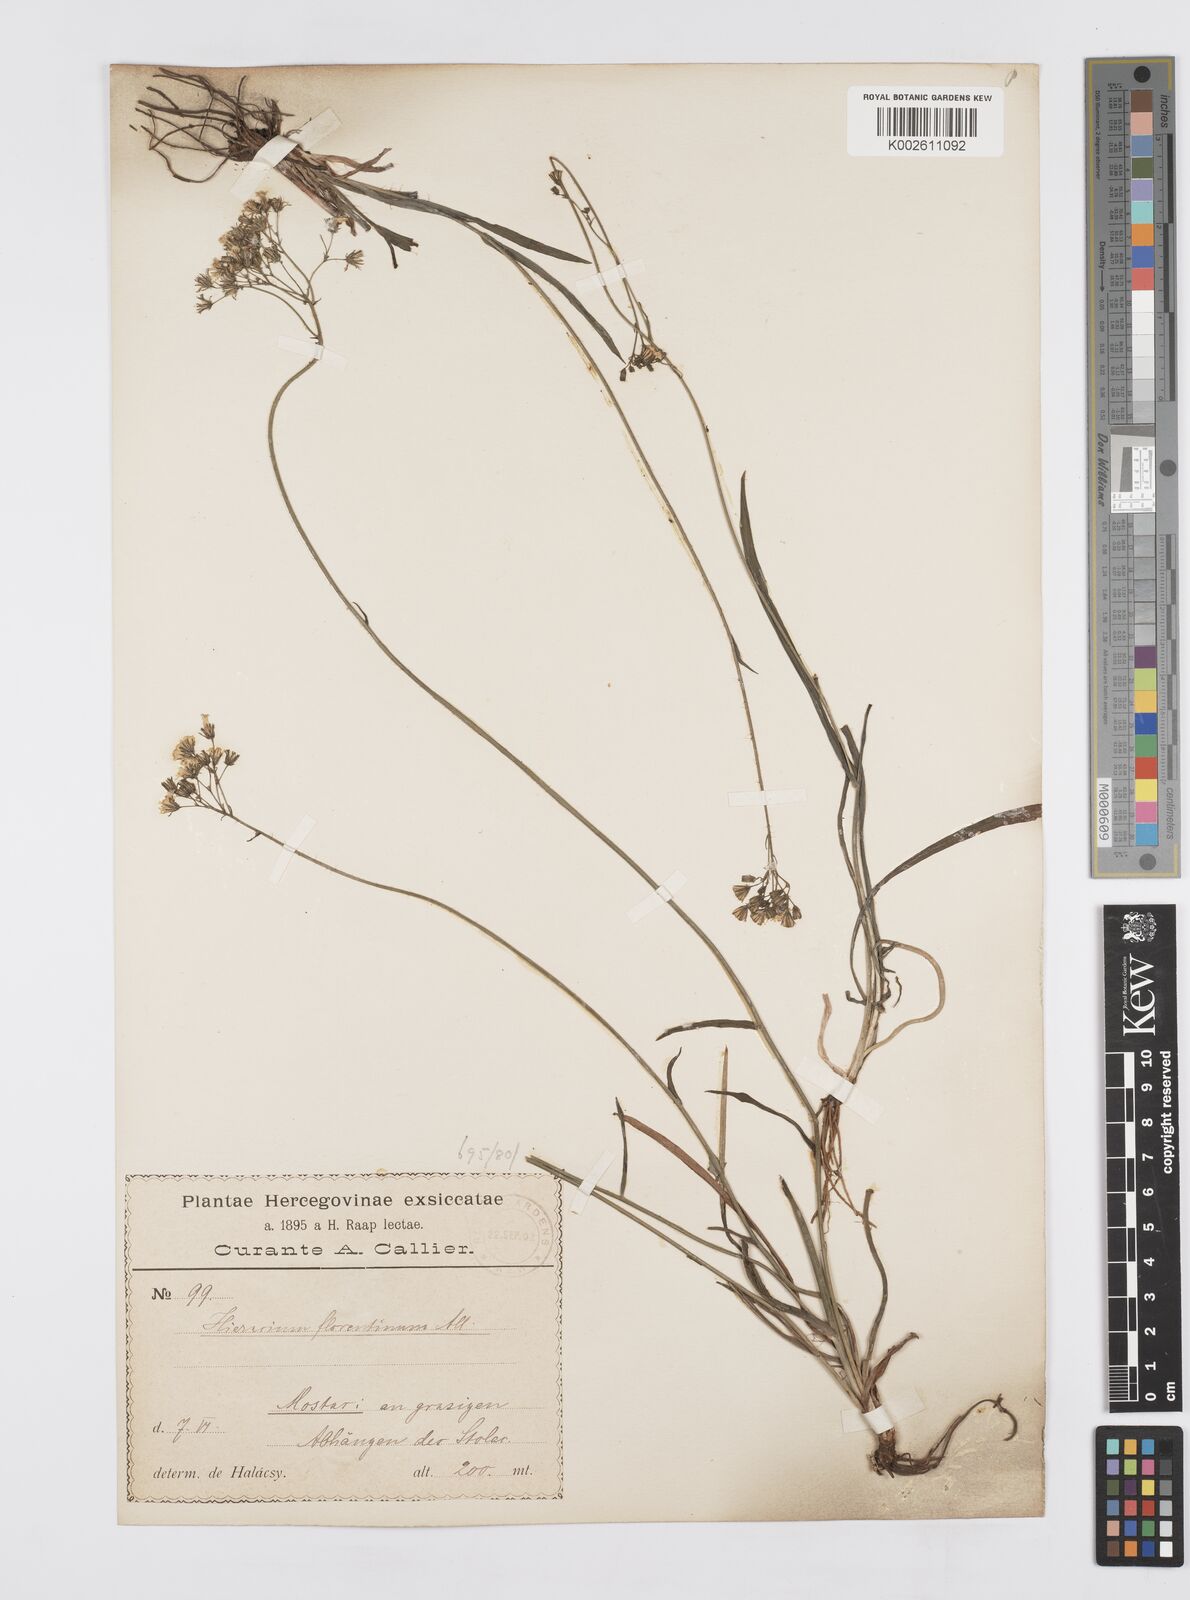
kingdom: Plantae
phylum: Tracheophyta
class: Magnoliopsida
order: Asterales
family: Asteraceae
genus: Pilosella
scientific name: Pilosella piloselloides
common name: Glaucous king-devil
